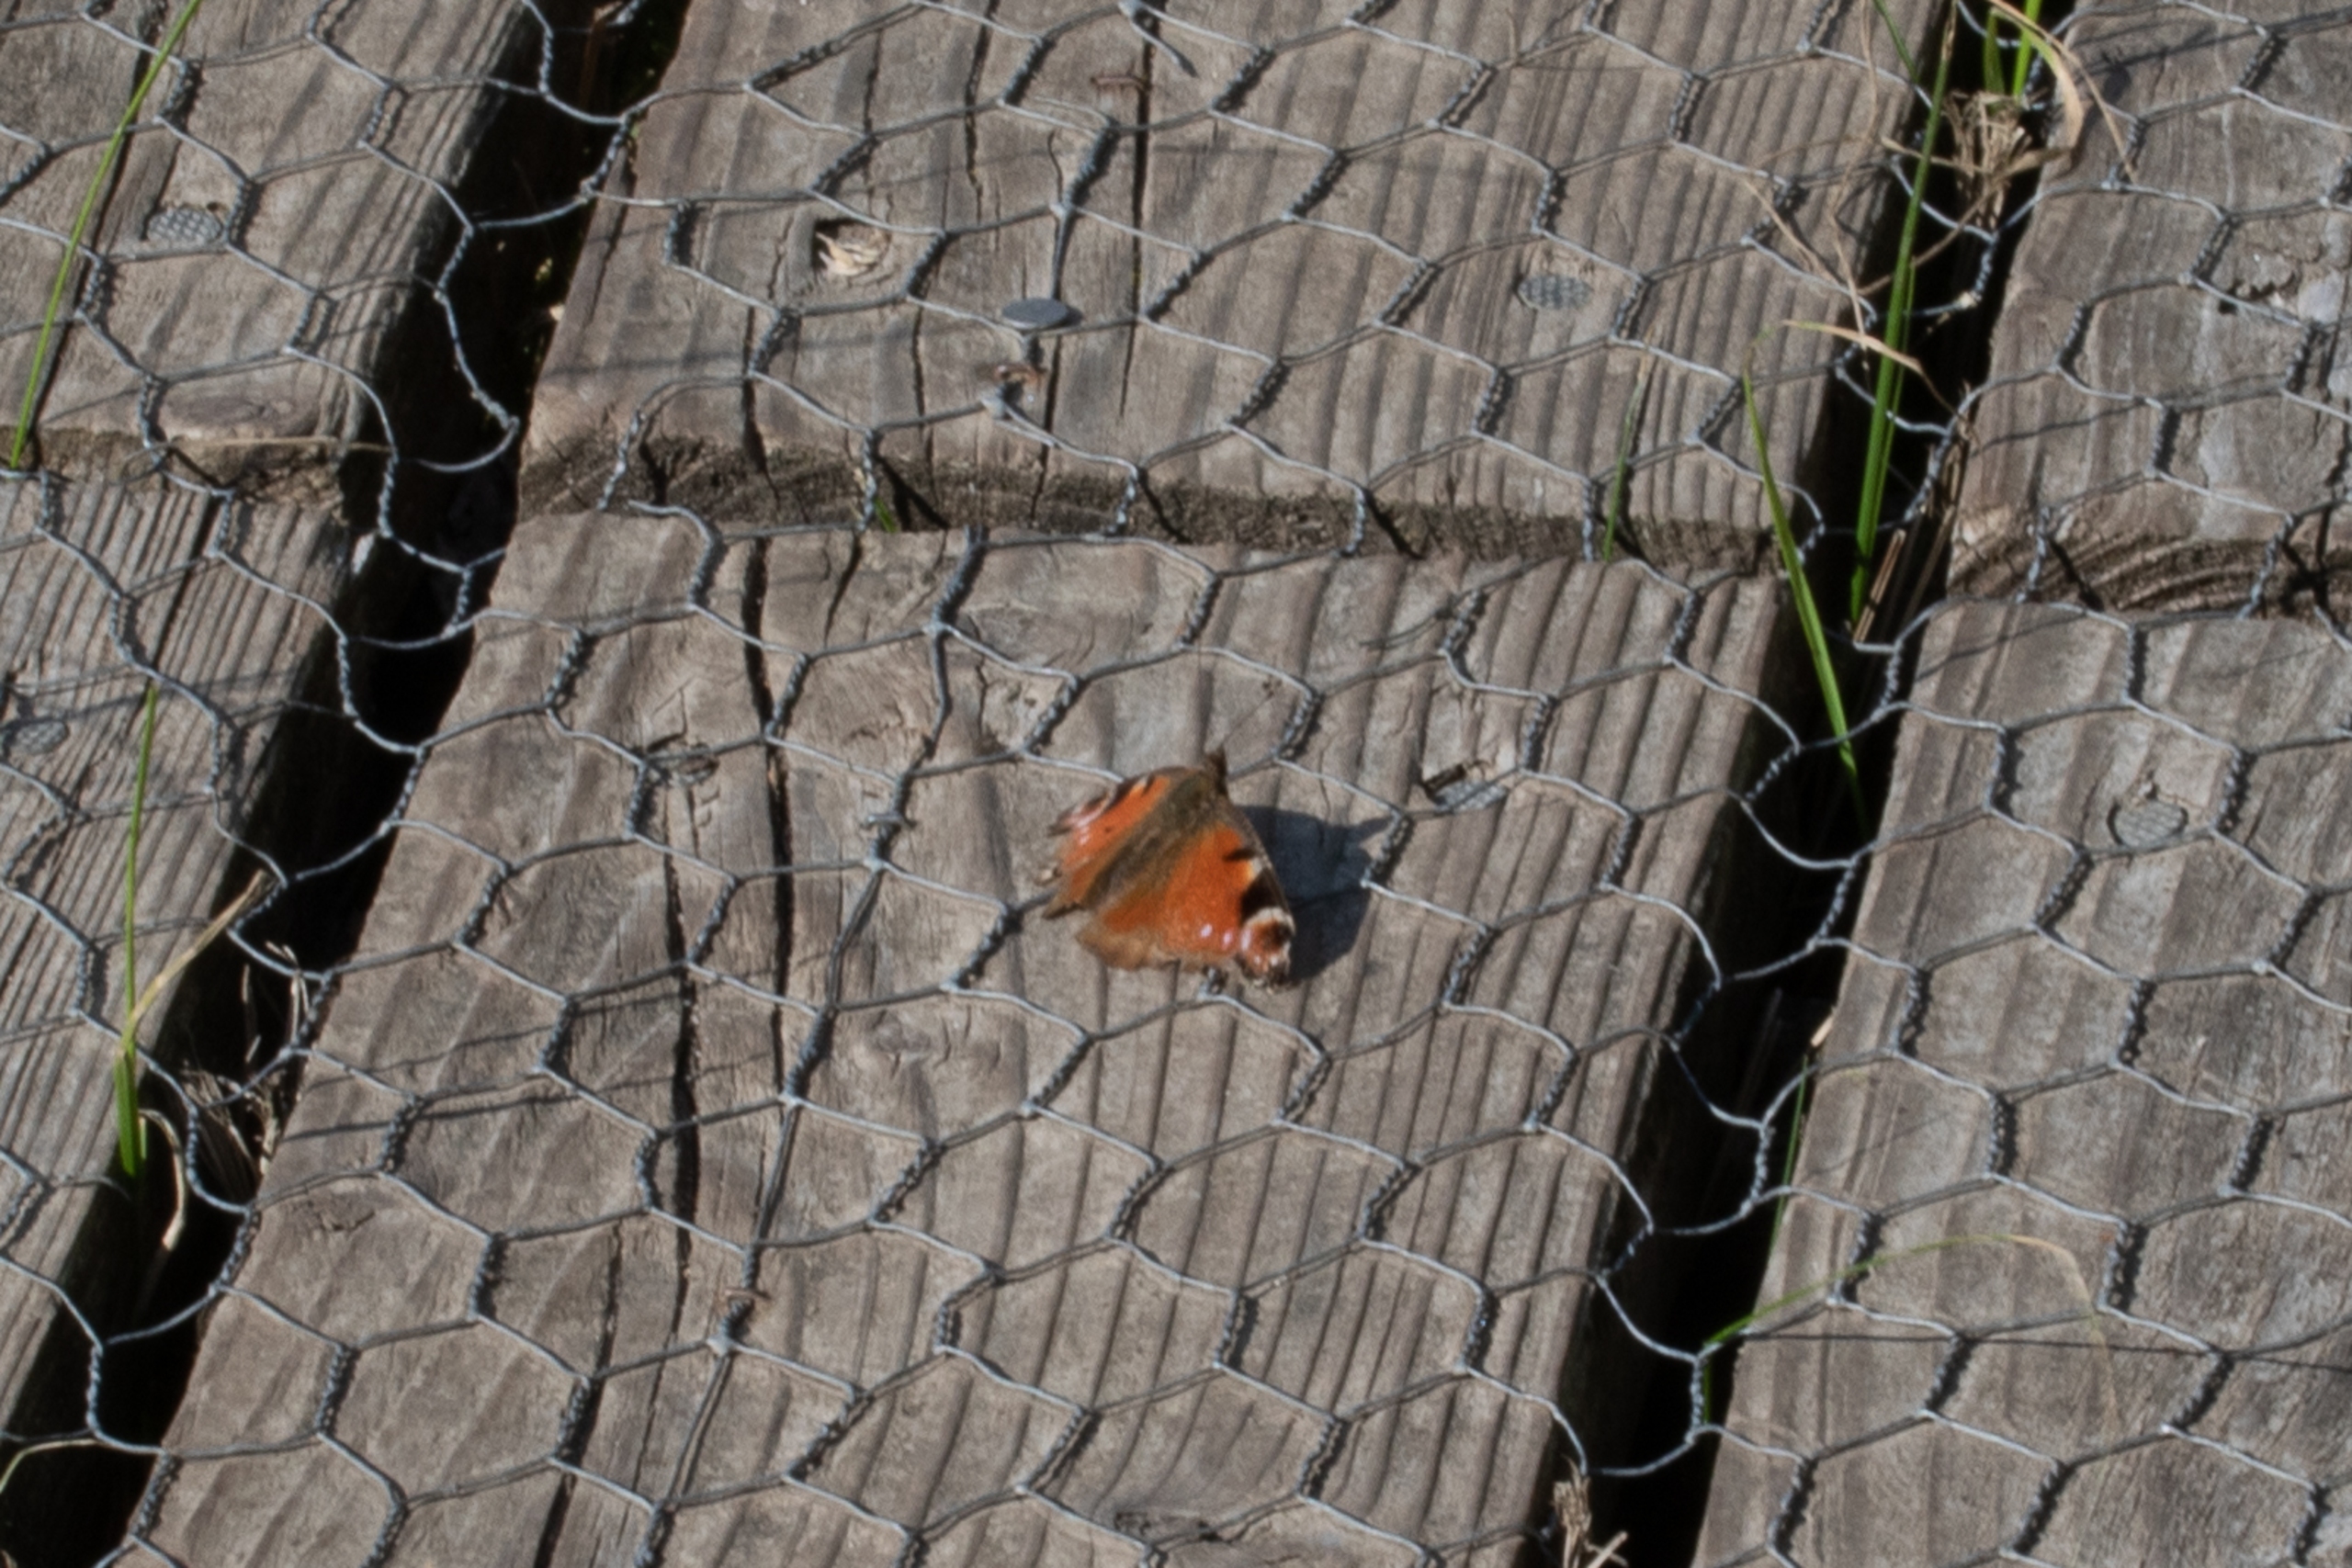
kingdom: Animalia
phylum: Arthropoda
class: Insecta
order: Lepidoptera
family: Nymphalidae
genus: Aglais
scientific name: Aglais io
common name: Dagpåfugleøje
